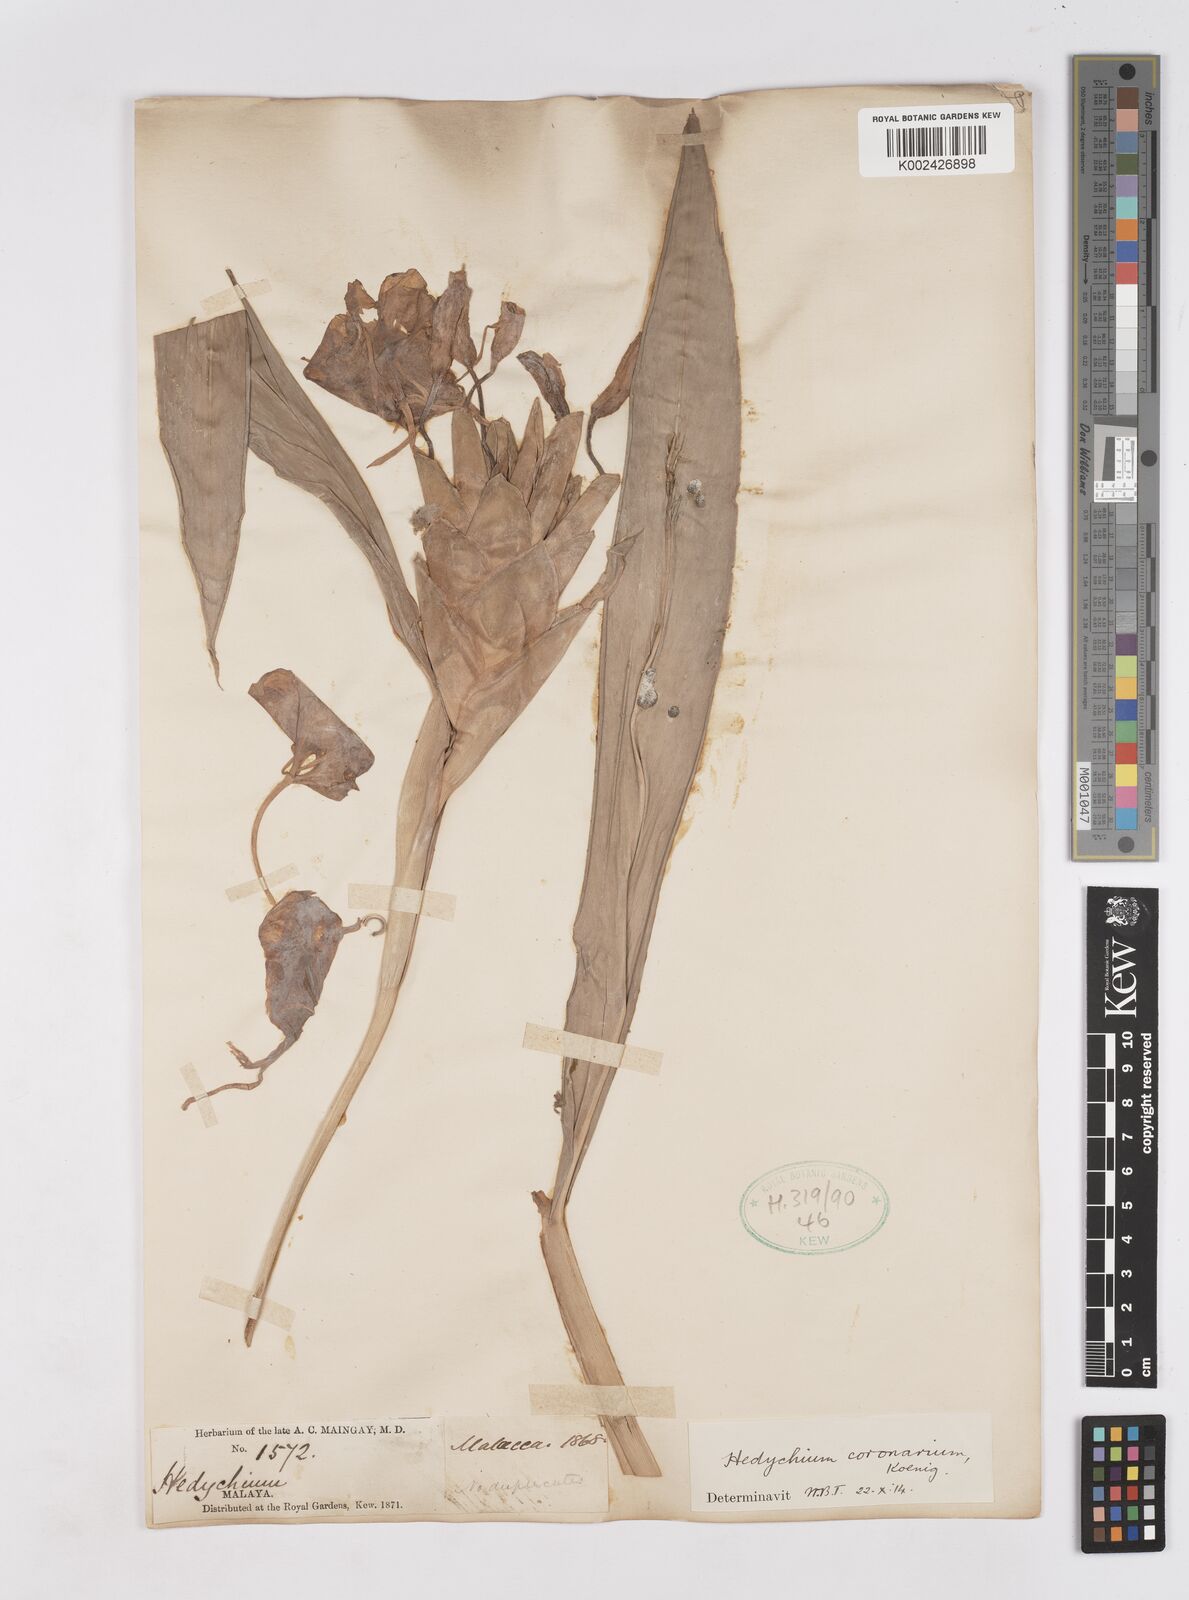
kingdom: Plantae
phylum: Tracheophyta
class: Liliopsida
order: Zingiberales
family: Zingiberaceae
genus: Hedychium
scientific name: Hedychium coronarium
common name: White garland-lily
